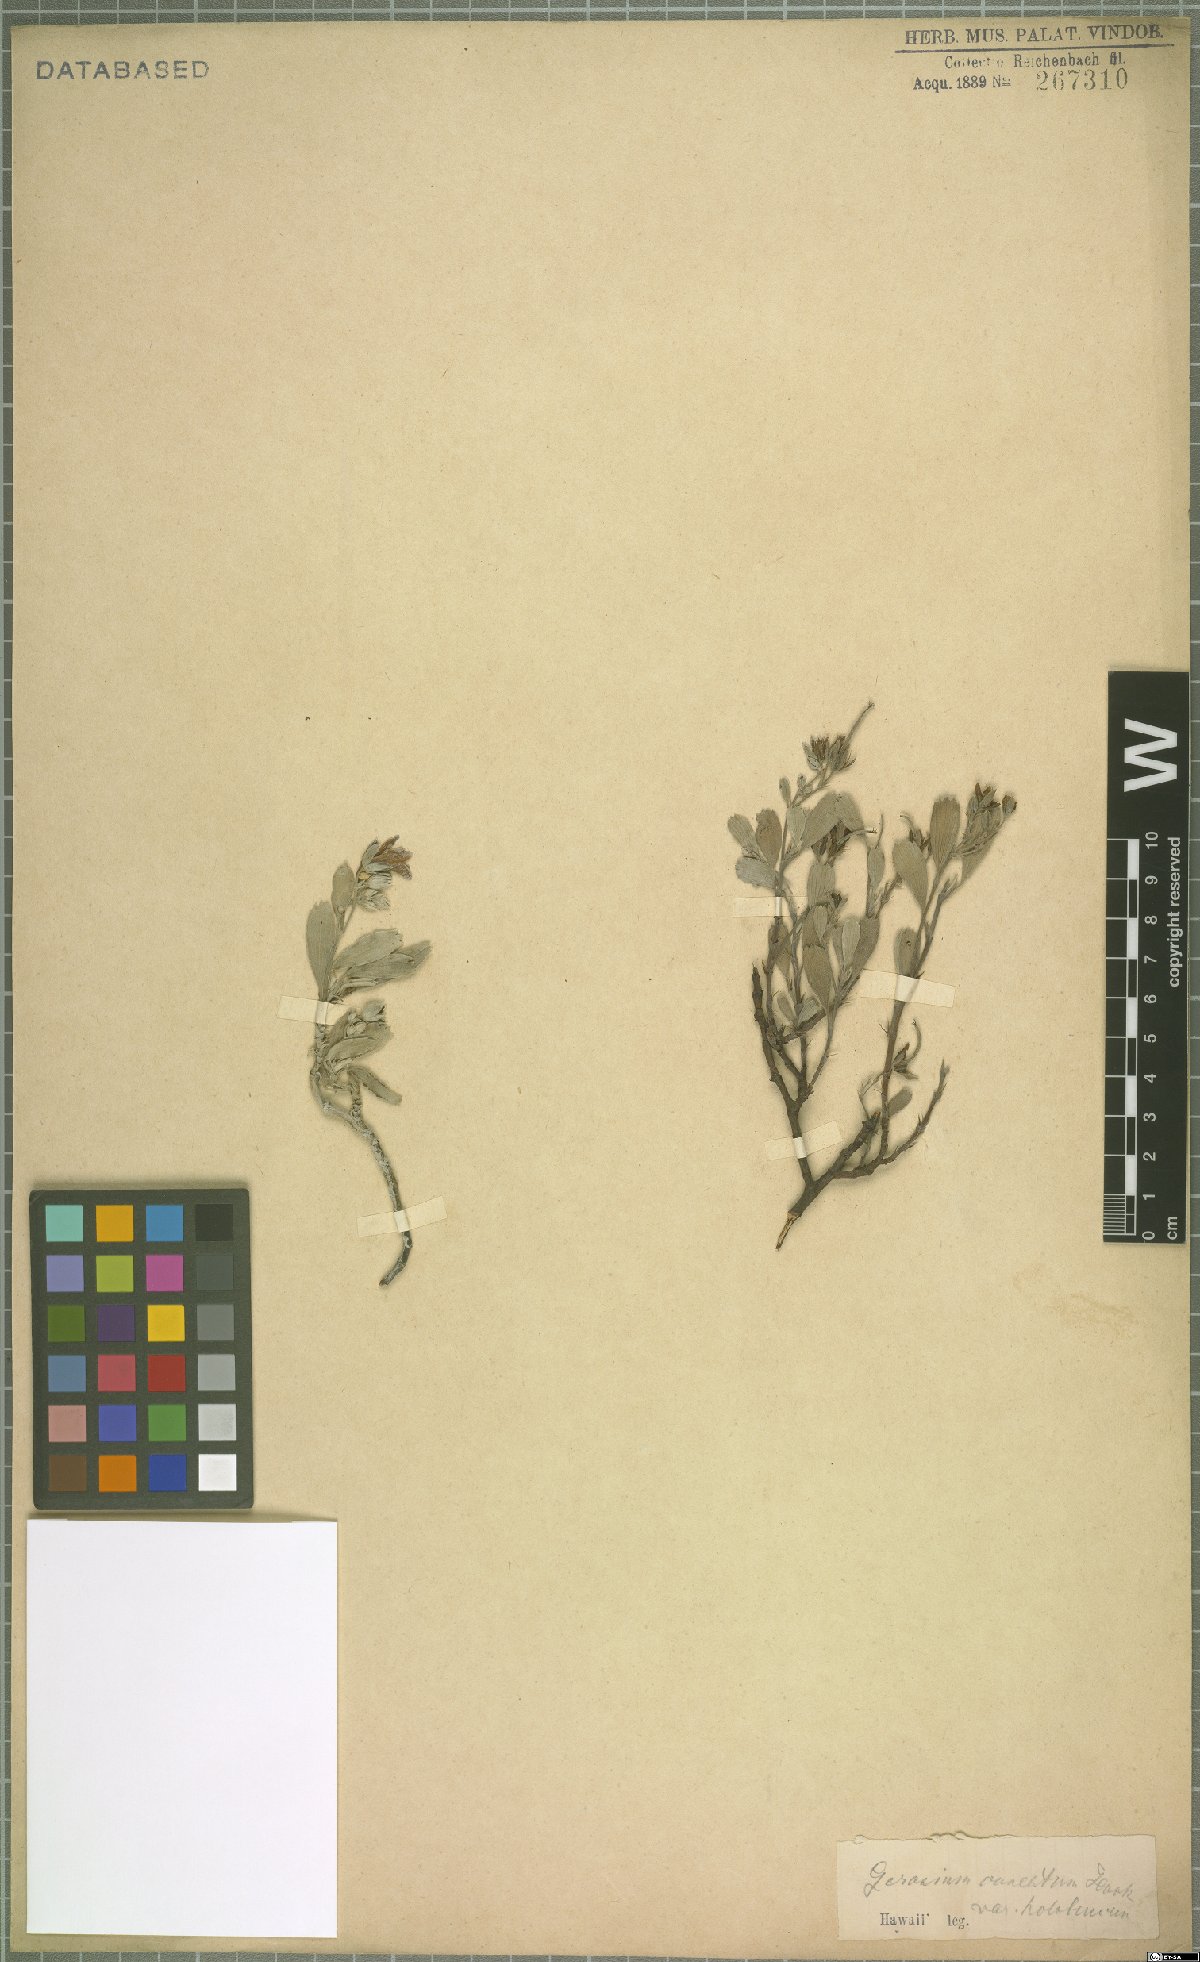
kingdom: Plantae
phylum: Tracheophyta
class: Magnoliopsida
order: Geraniales
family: Geraniaceae
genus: Geranium
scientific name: Geranium cuneatum
